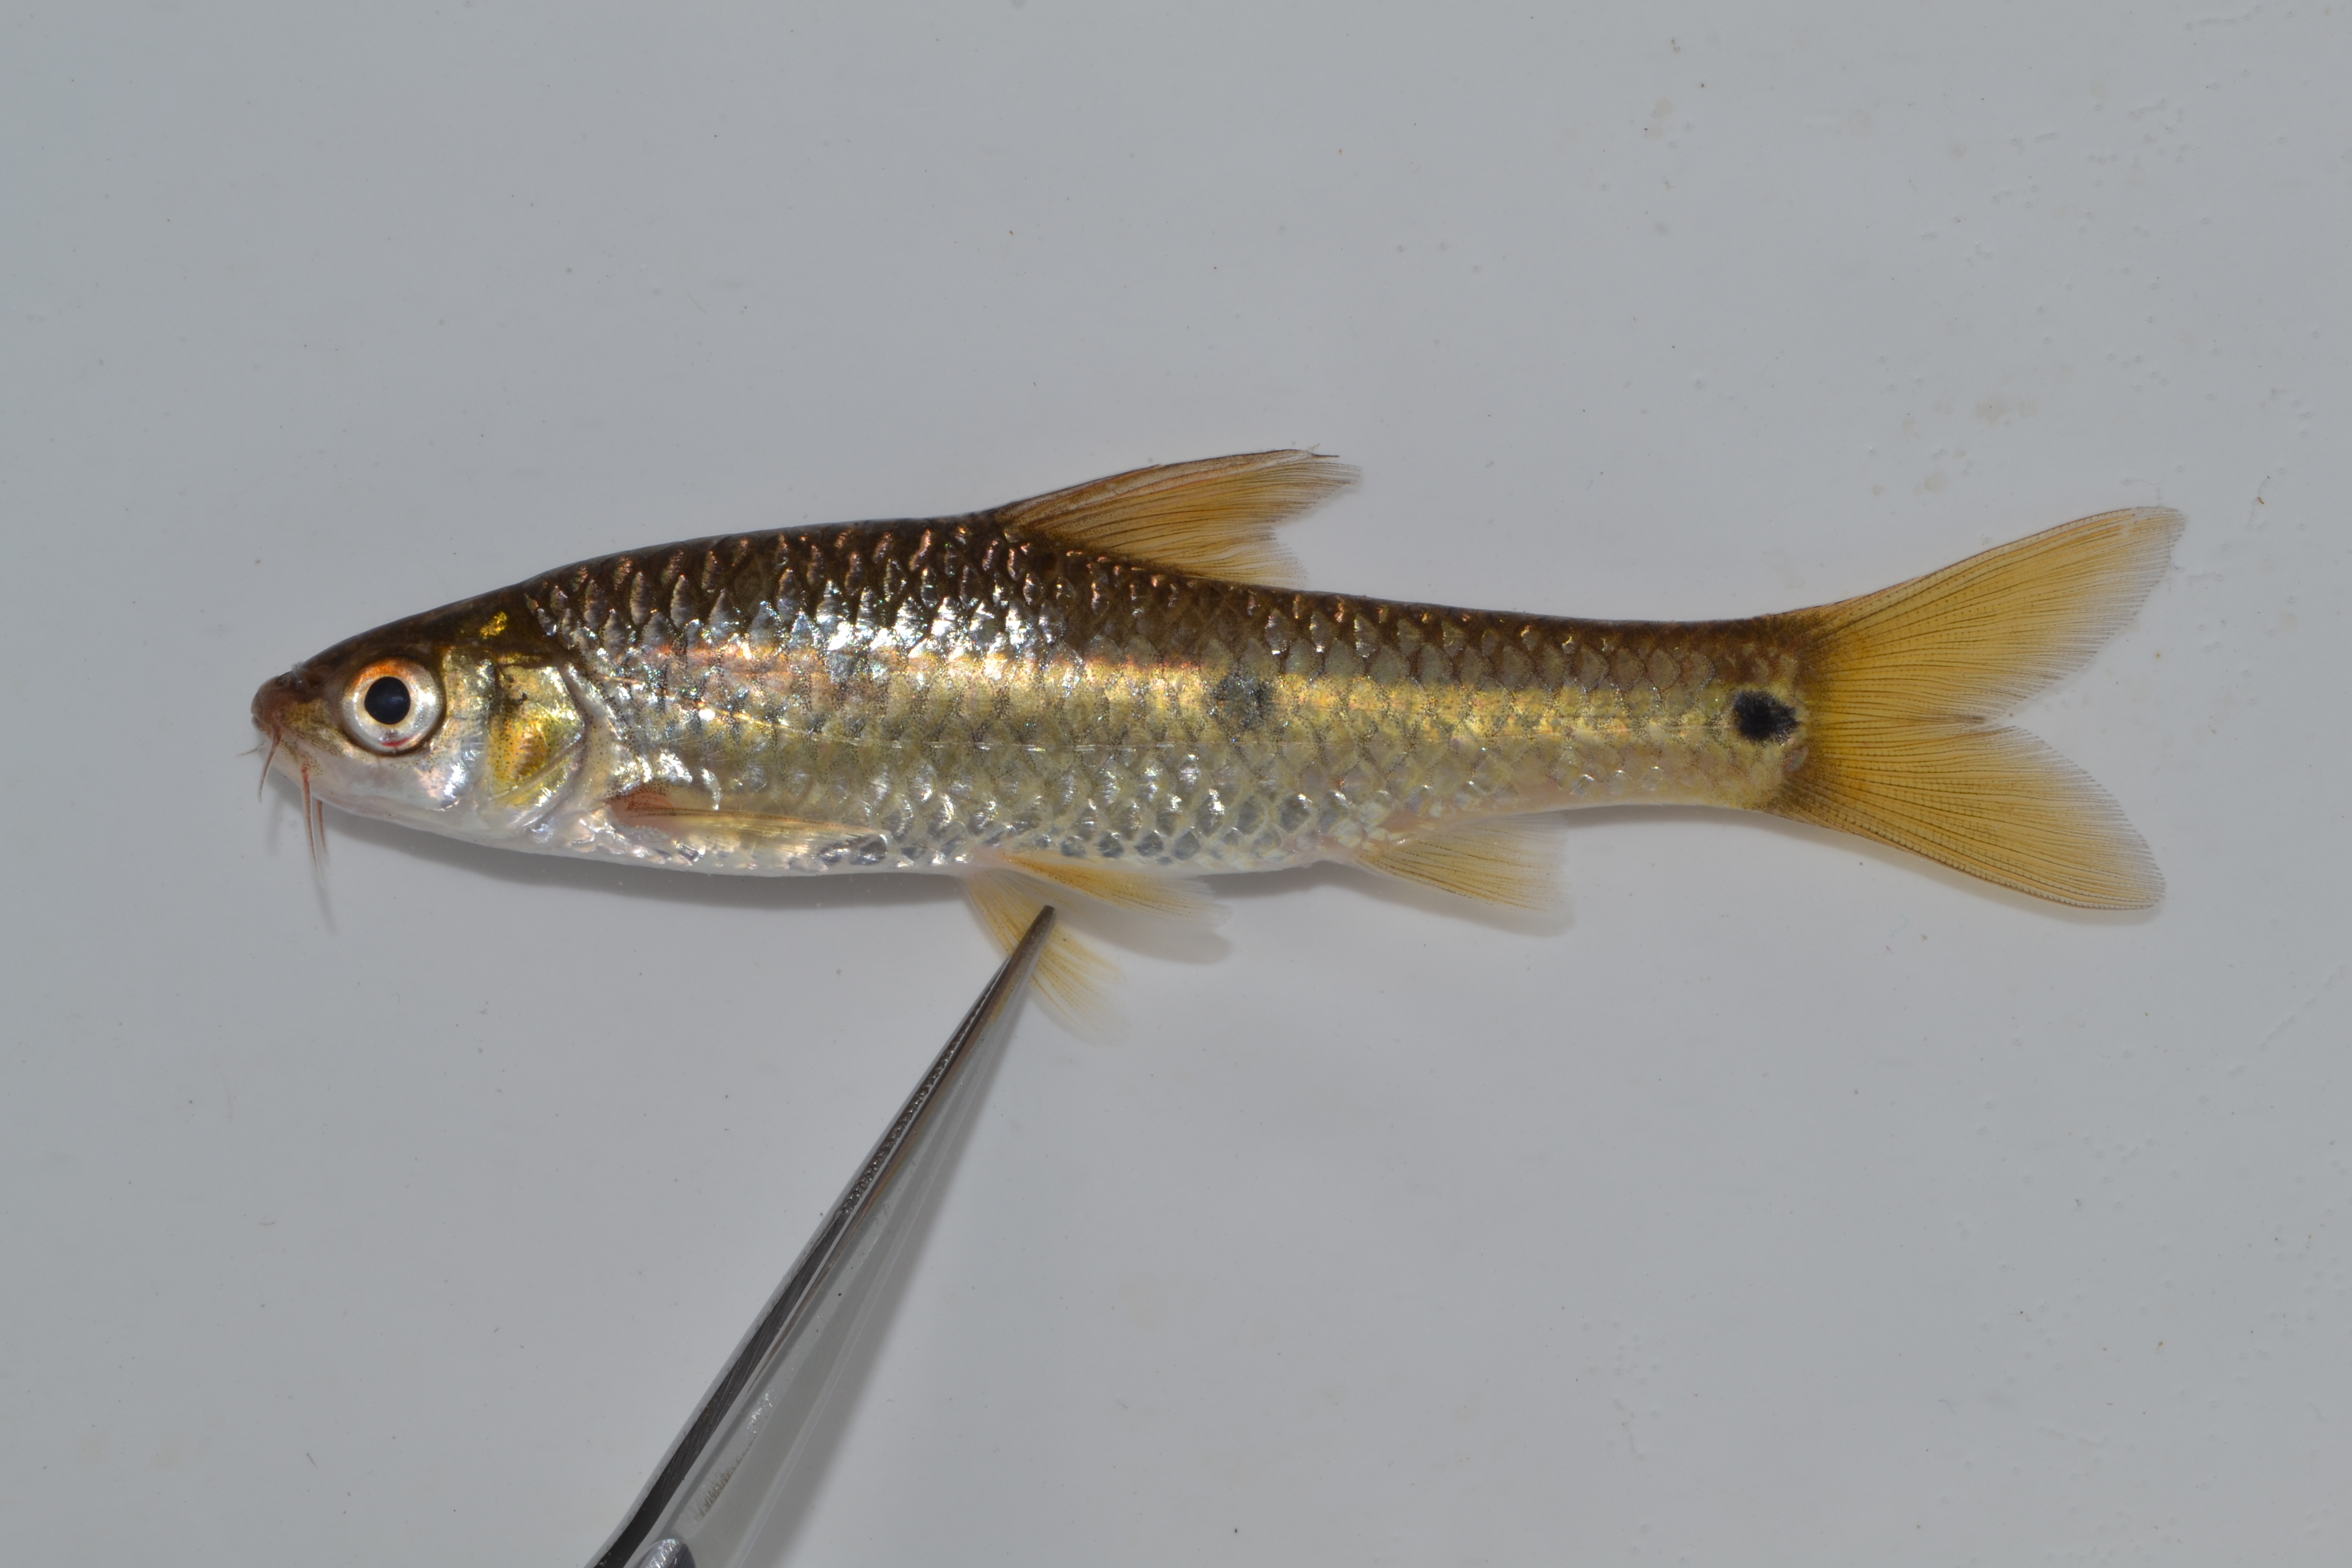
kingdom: Animalia
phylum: Chordata
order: Cypriniformes
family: Cyprinidae
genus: Enteromius
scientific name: Enteromius trimaculatus
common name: Threespot barb
